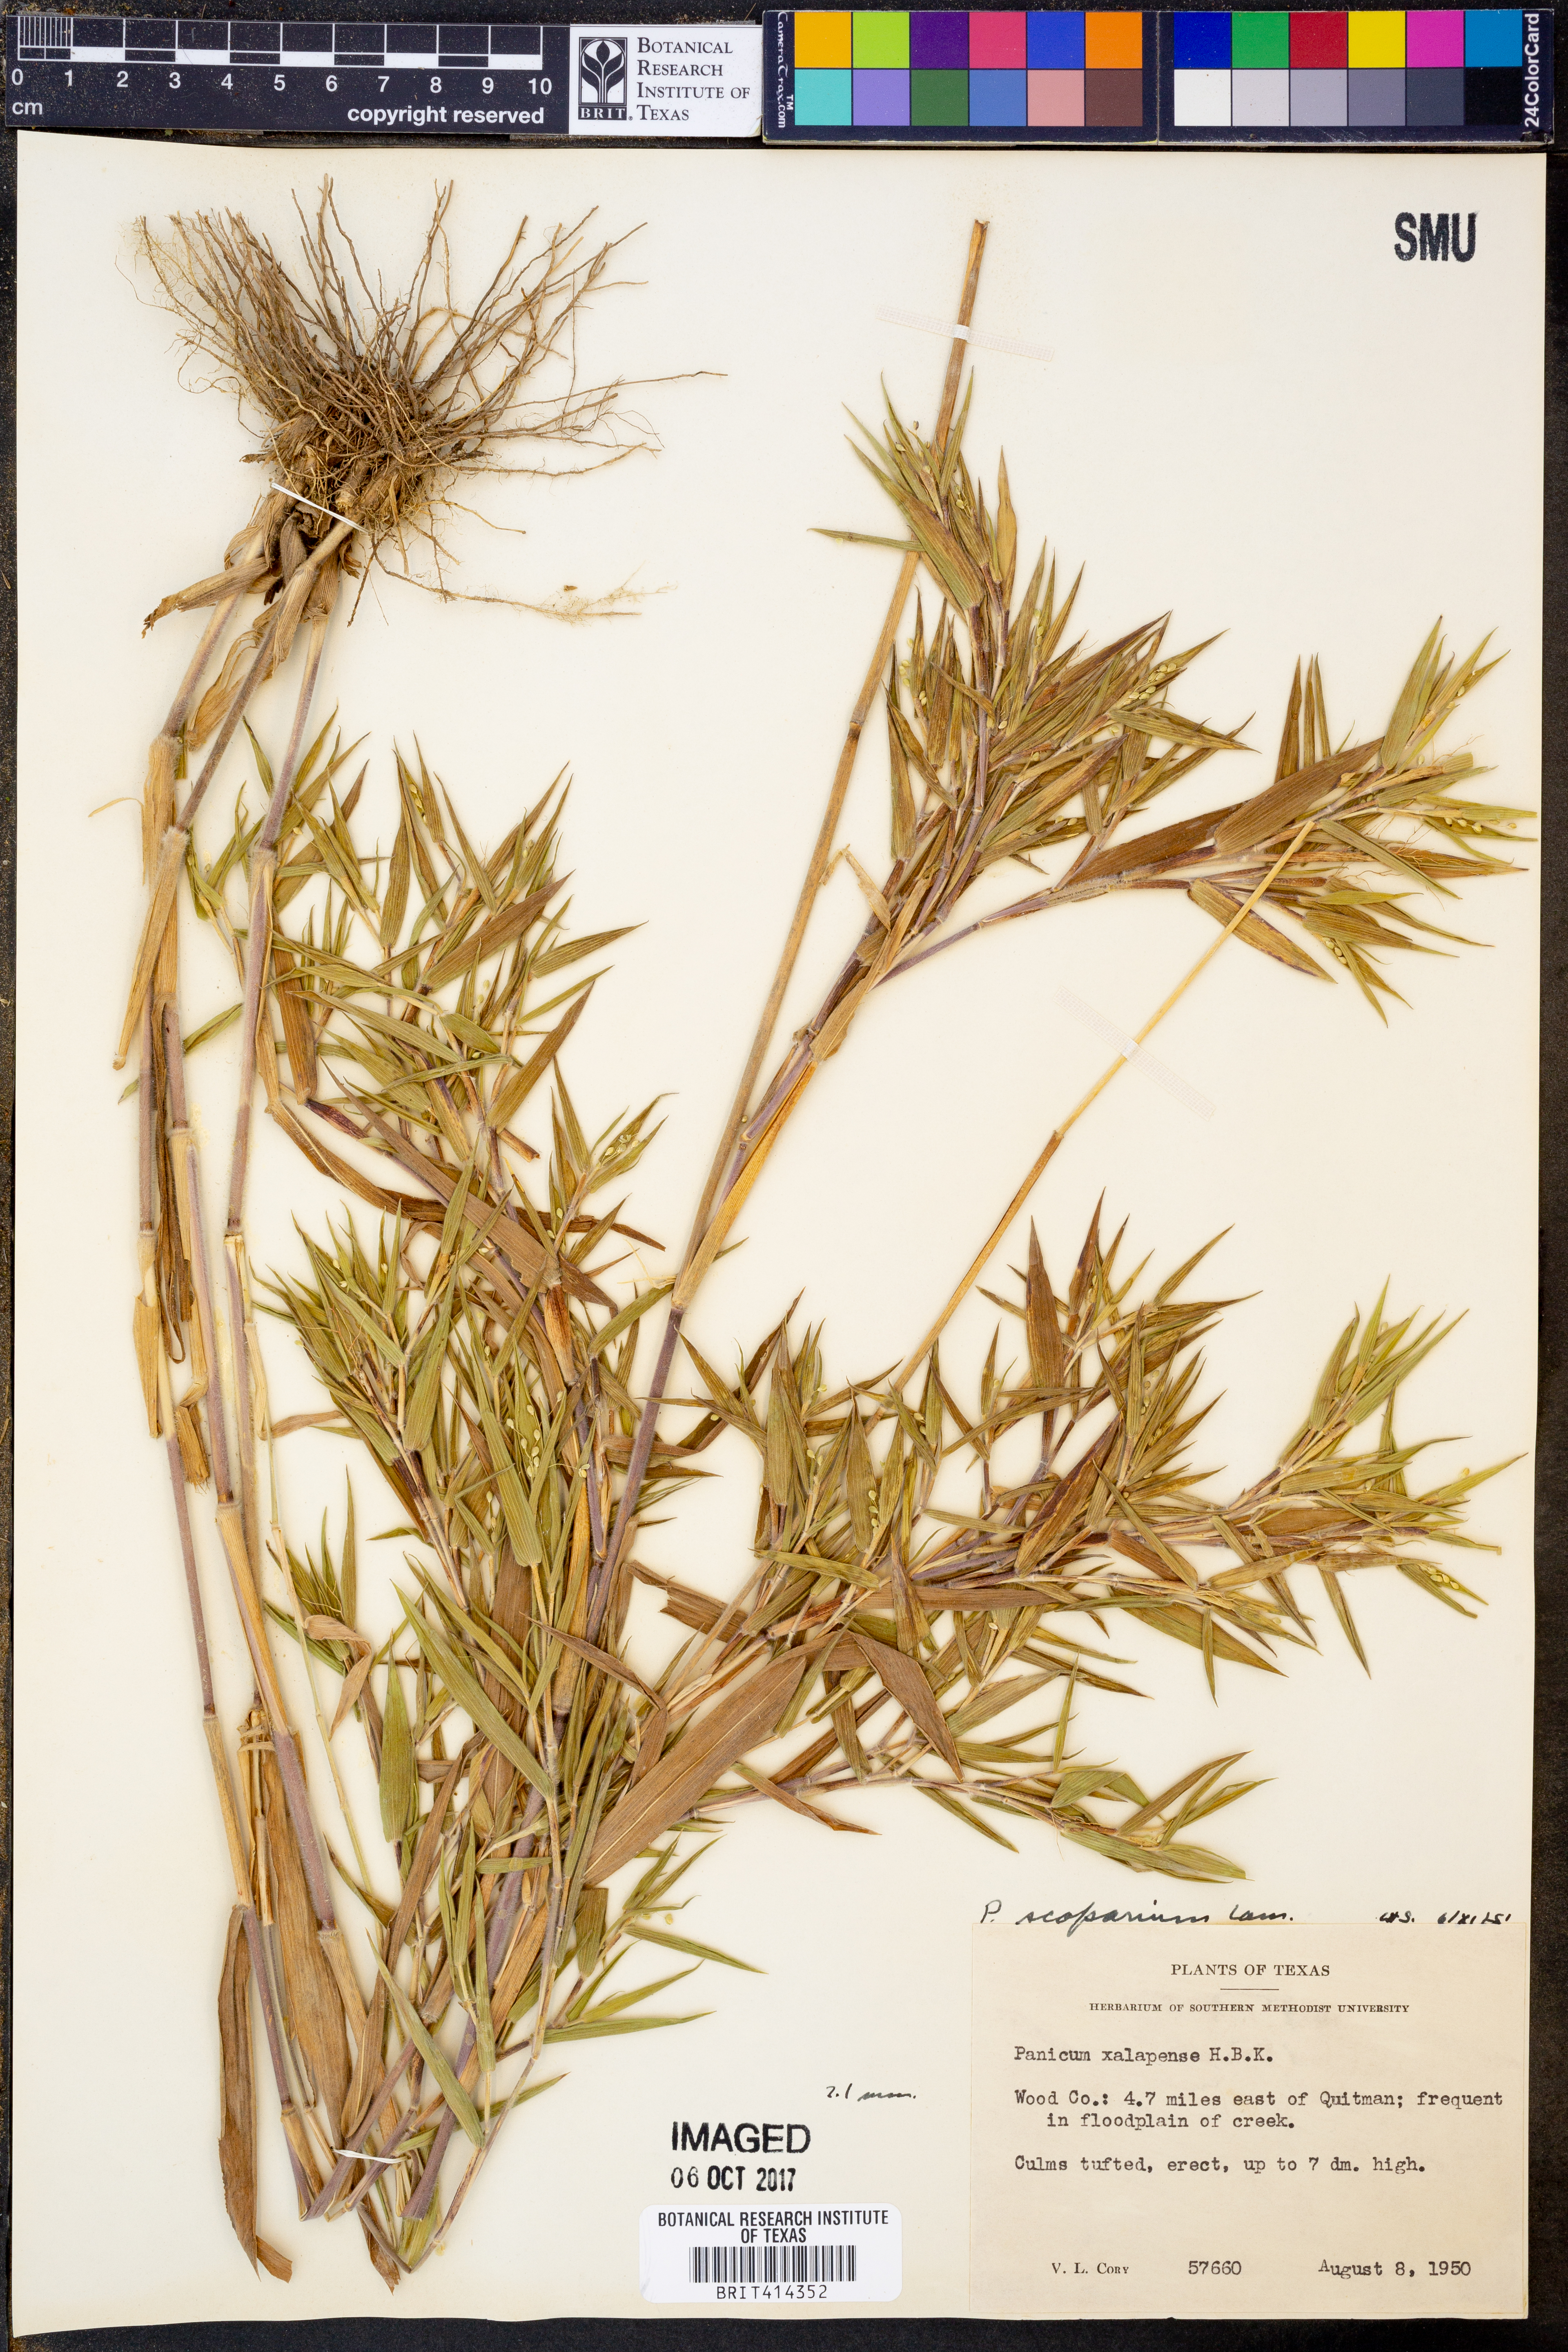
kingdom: Plantae
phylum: Tracheophyta
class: Liliopsida
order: Poales
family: Poaceae
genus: Dichanthelium
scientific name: Dichanthelium scribnerianum
